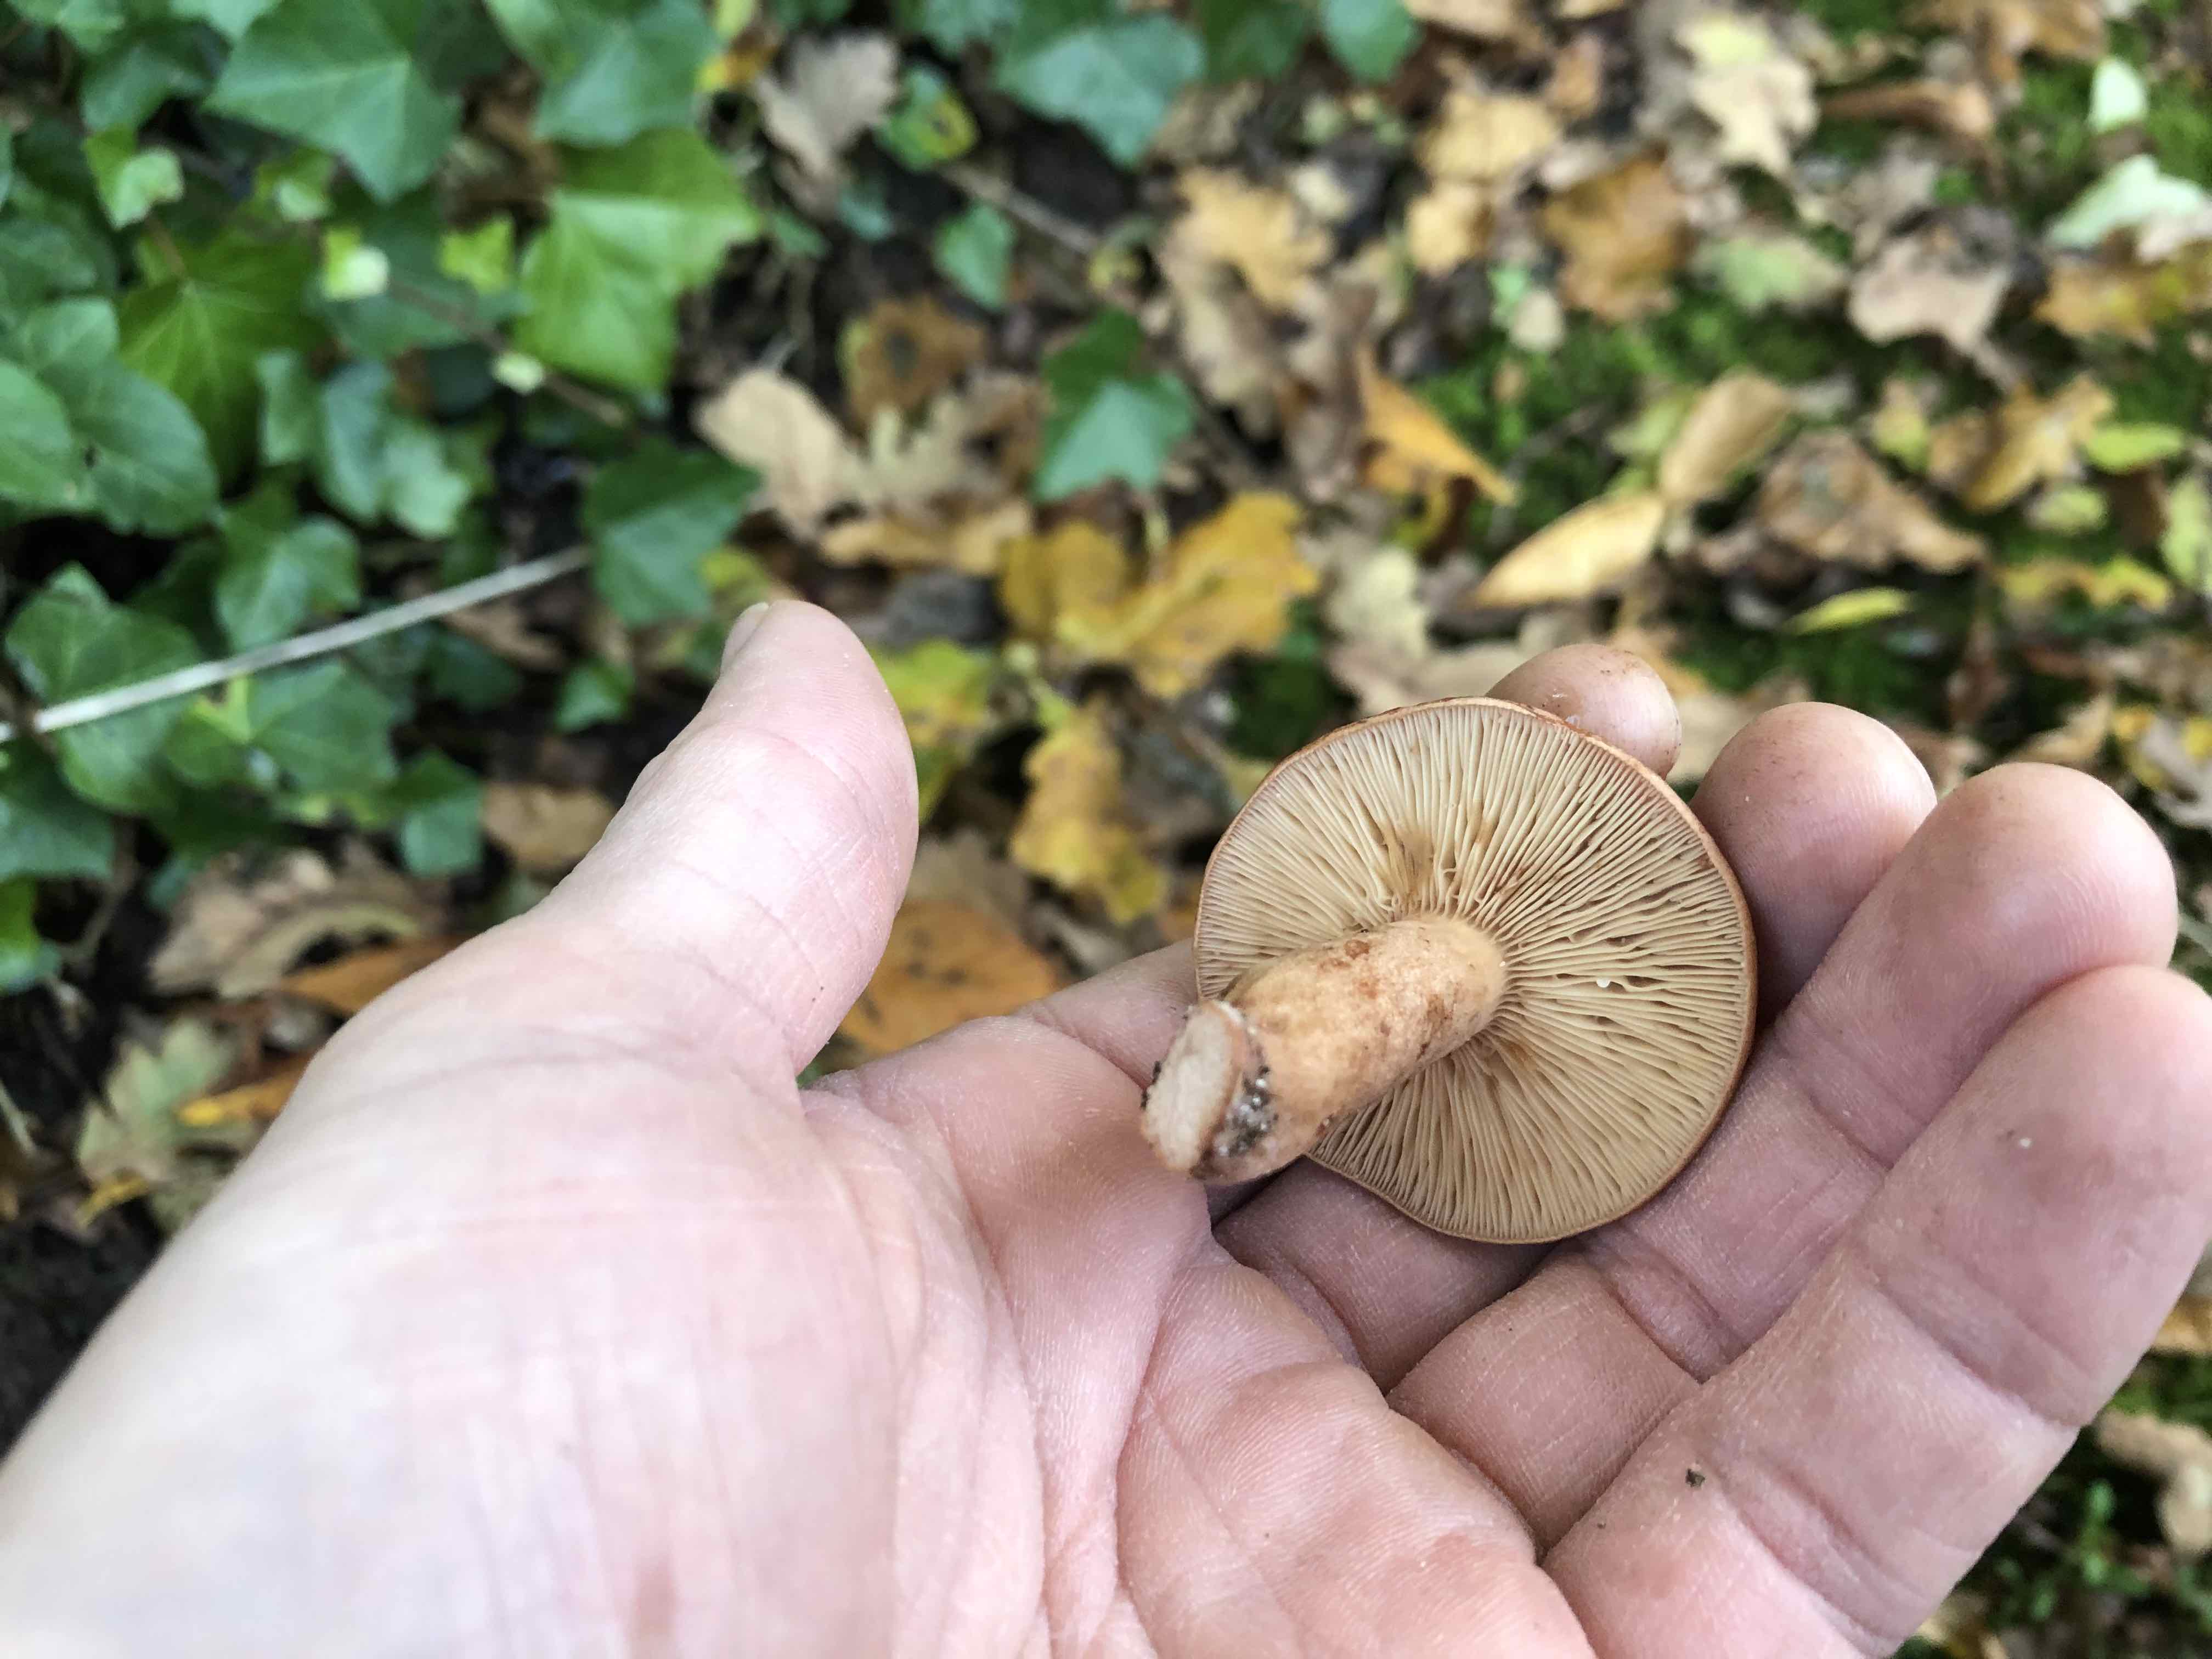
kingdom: Fungi
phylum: Basidiomycota
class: Agaricomycetes
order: Russulales
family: Russulaceae
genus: Lactarius
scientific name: Lactarius quietus
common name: ege-mælkehat
